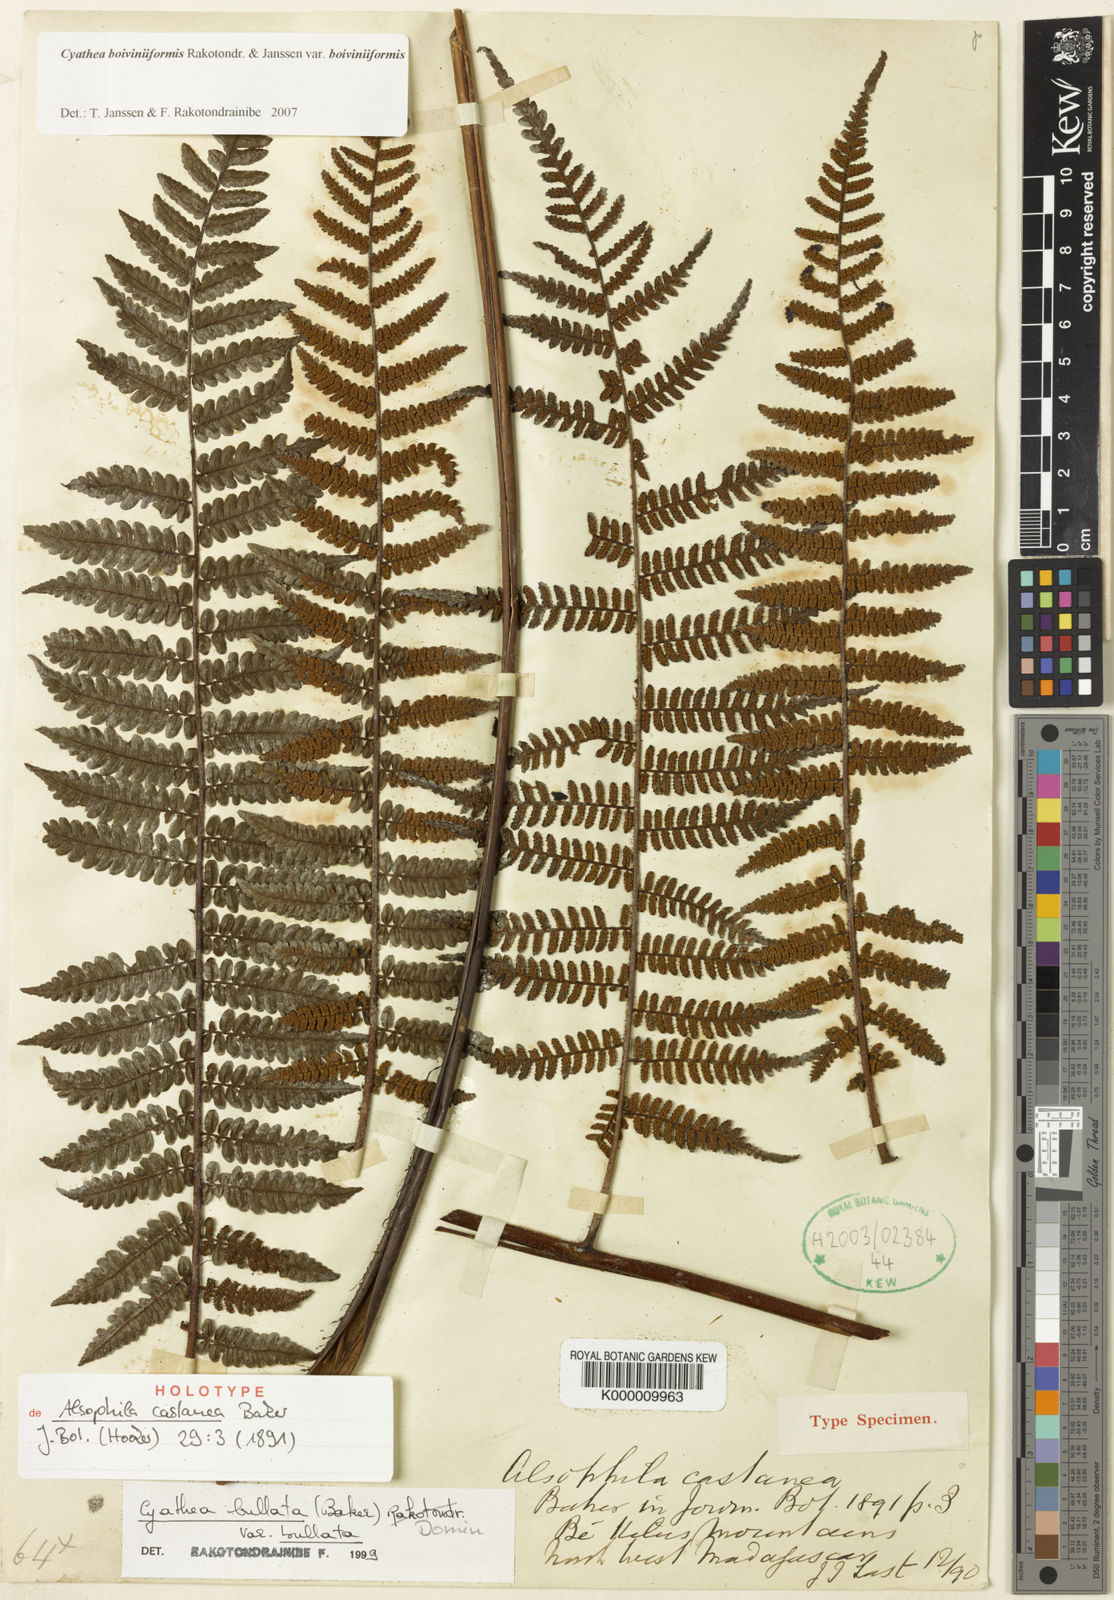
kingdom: Plantae
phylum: Tracheophyta
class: Polypodiopsida
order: Cyatheales
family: Cyatheaceae
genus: Cyathea
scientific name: Cyathea lechleri
